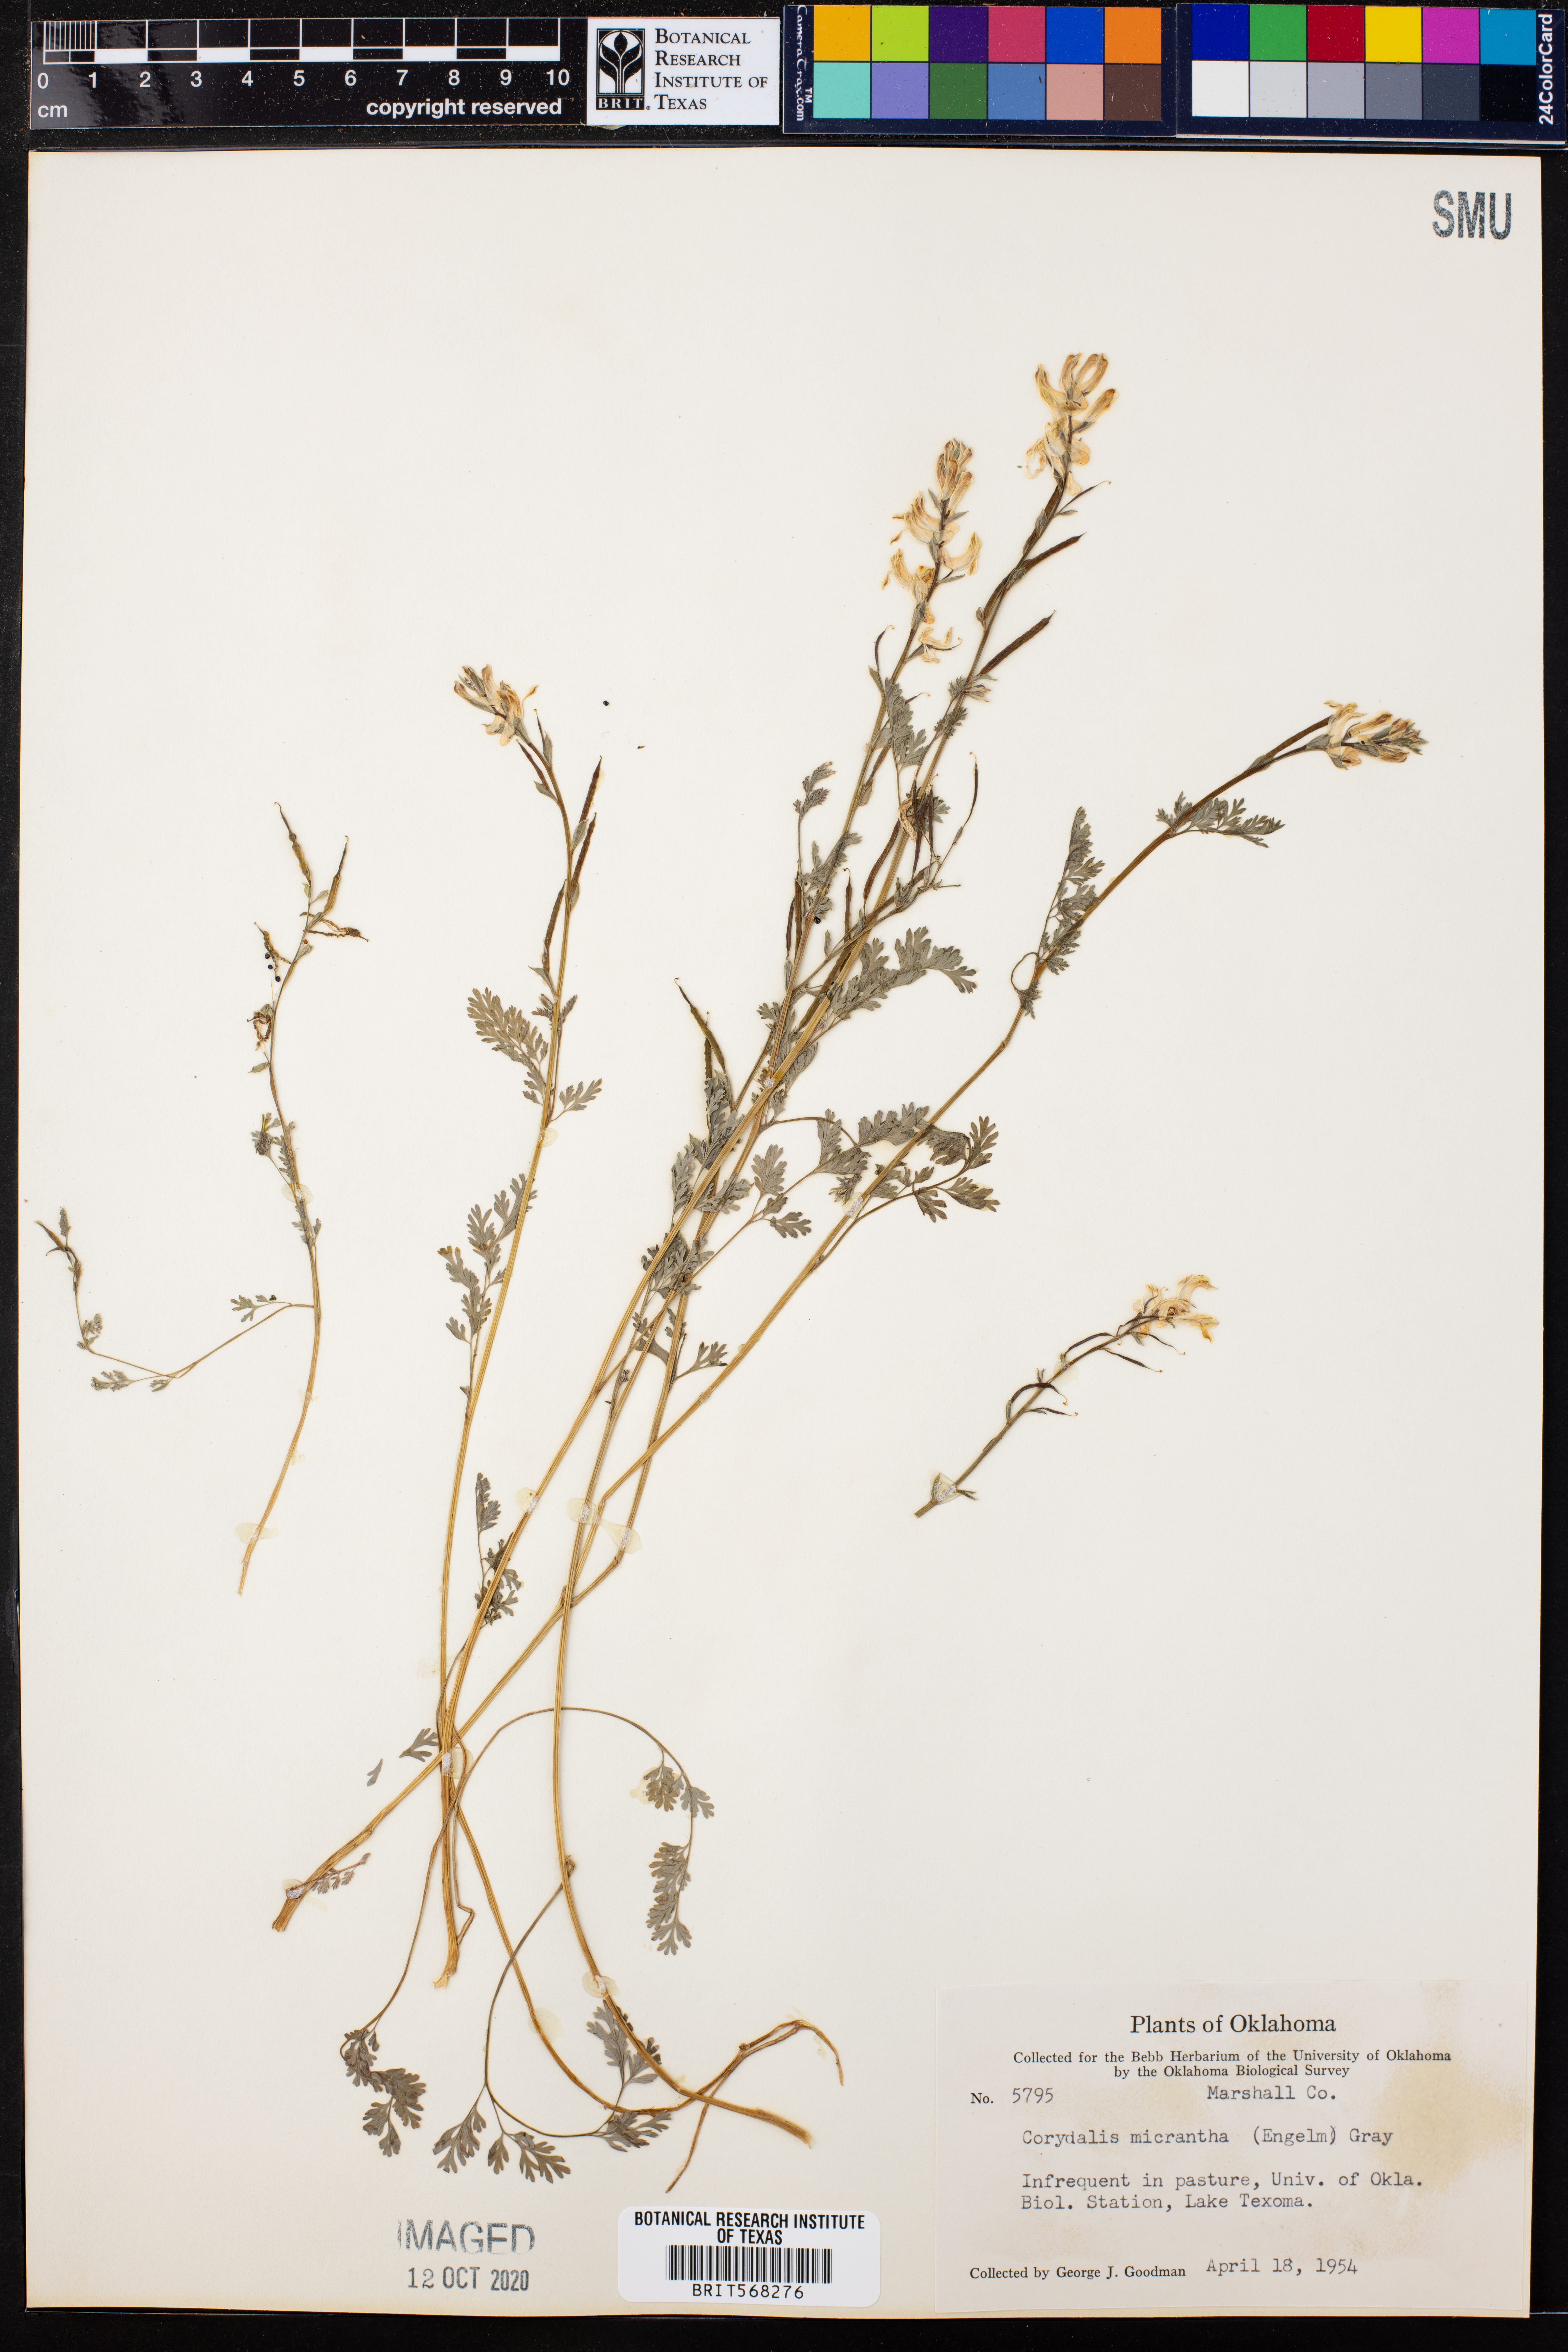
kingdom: Plantae
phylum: Tracheophyta
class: Magnoliopsida
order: Ranunculales
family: Papaveraceae
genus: Corydalis
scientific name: Corydalis micrantha
